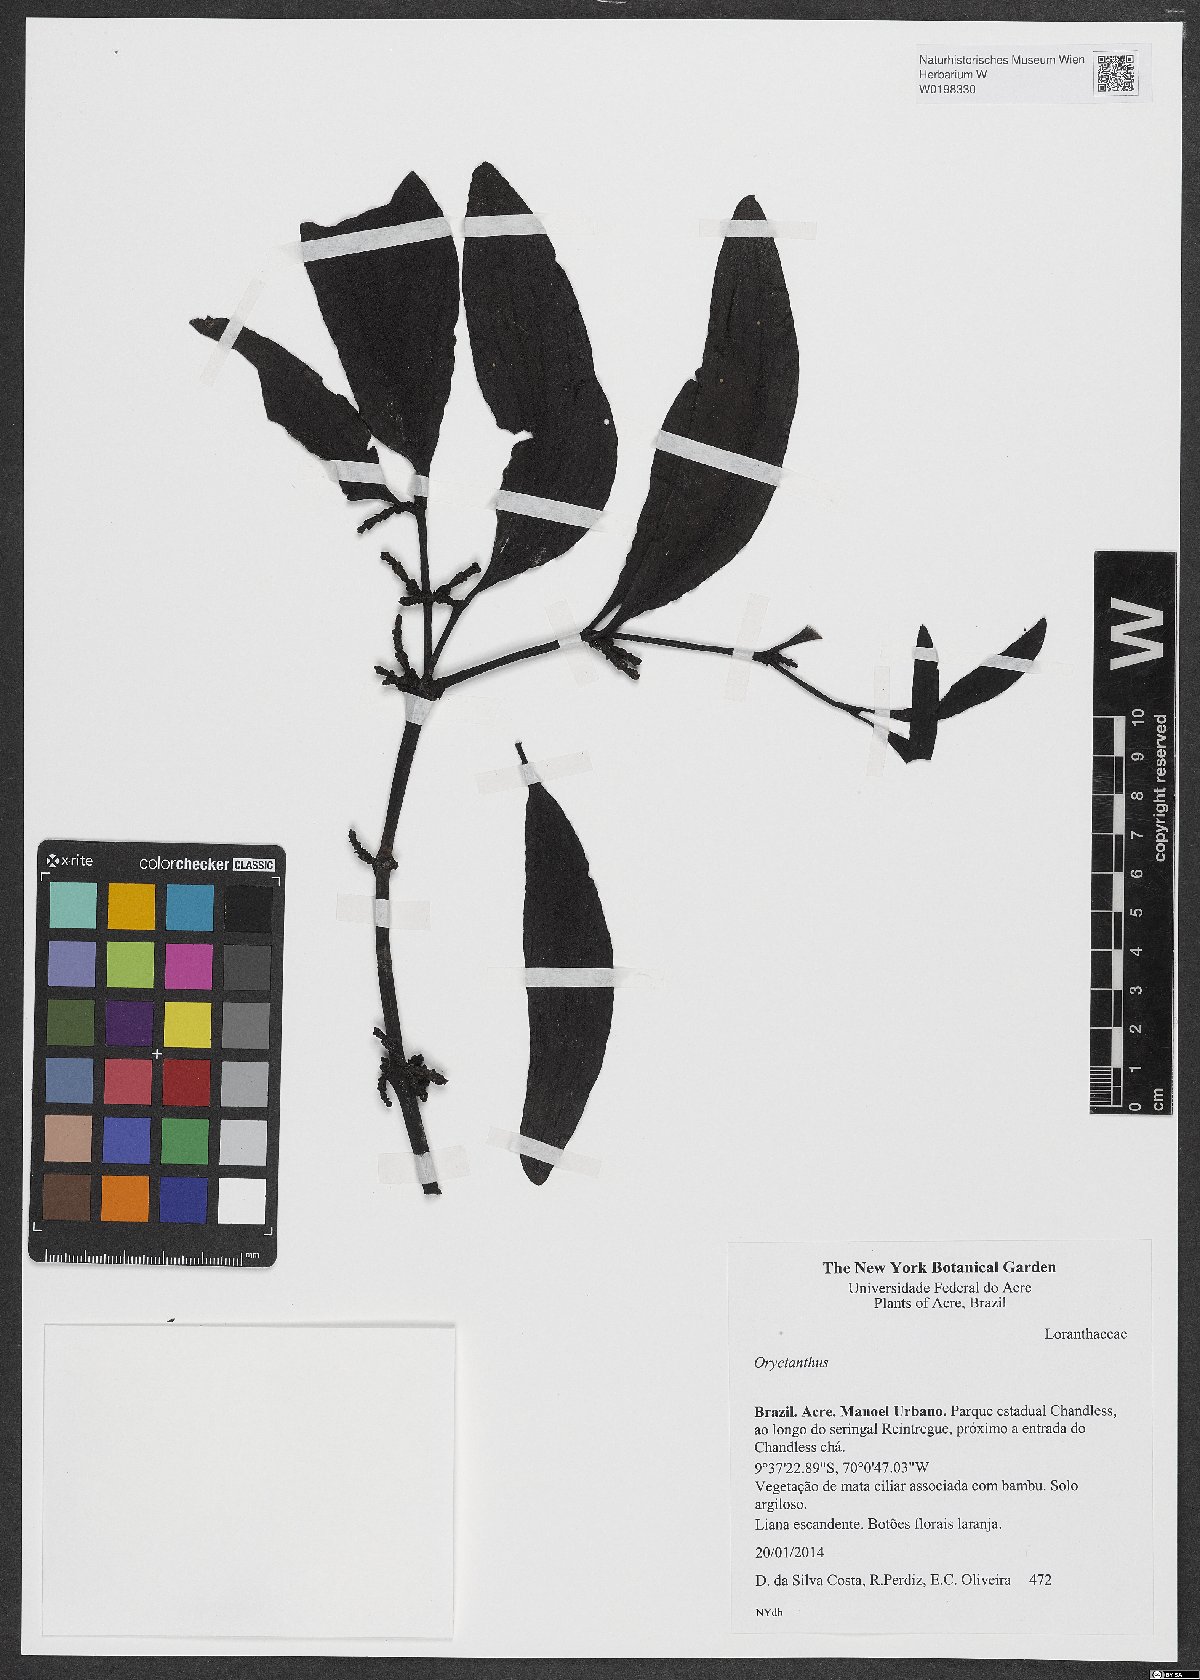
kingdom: Plantae
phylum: Tracheophyta
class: Magnoliopsida
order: Santalales
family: Loranthaceae
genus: Oryctanthus
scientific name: Oryctanthus
